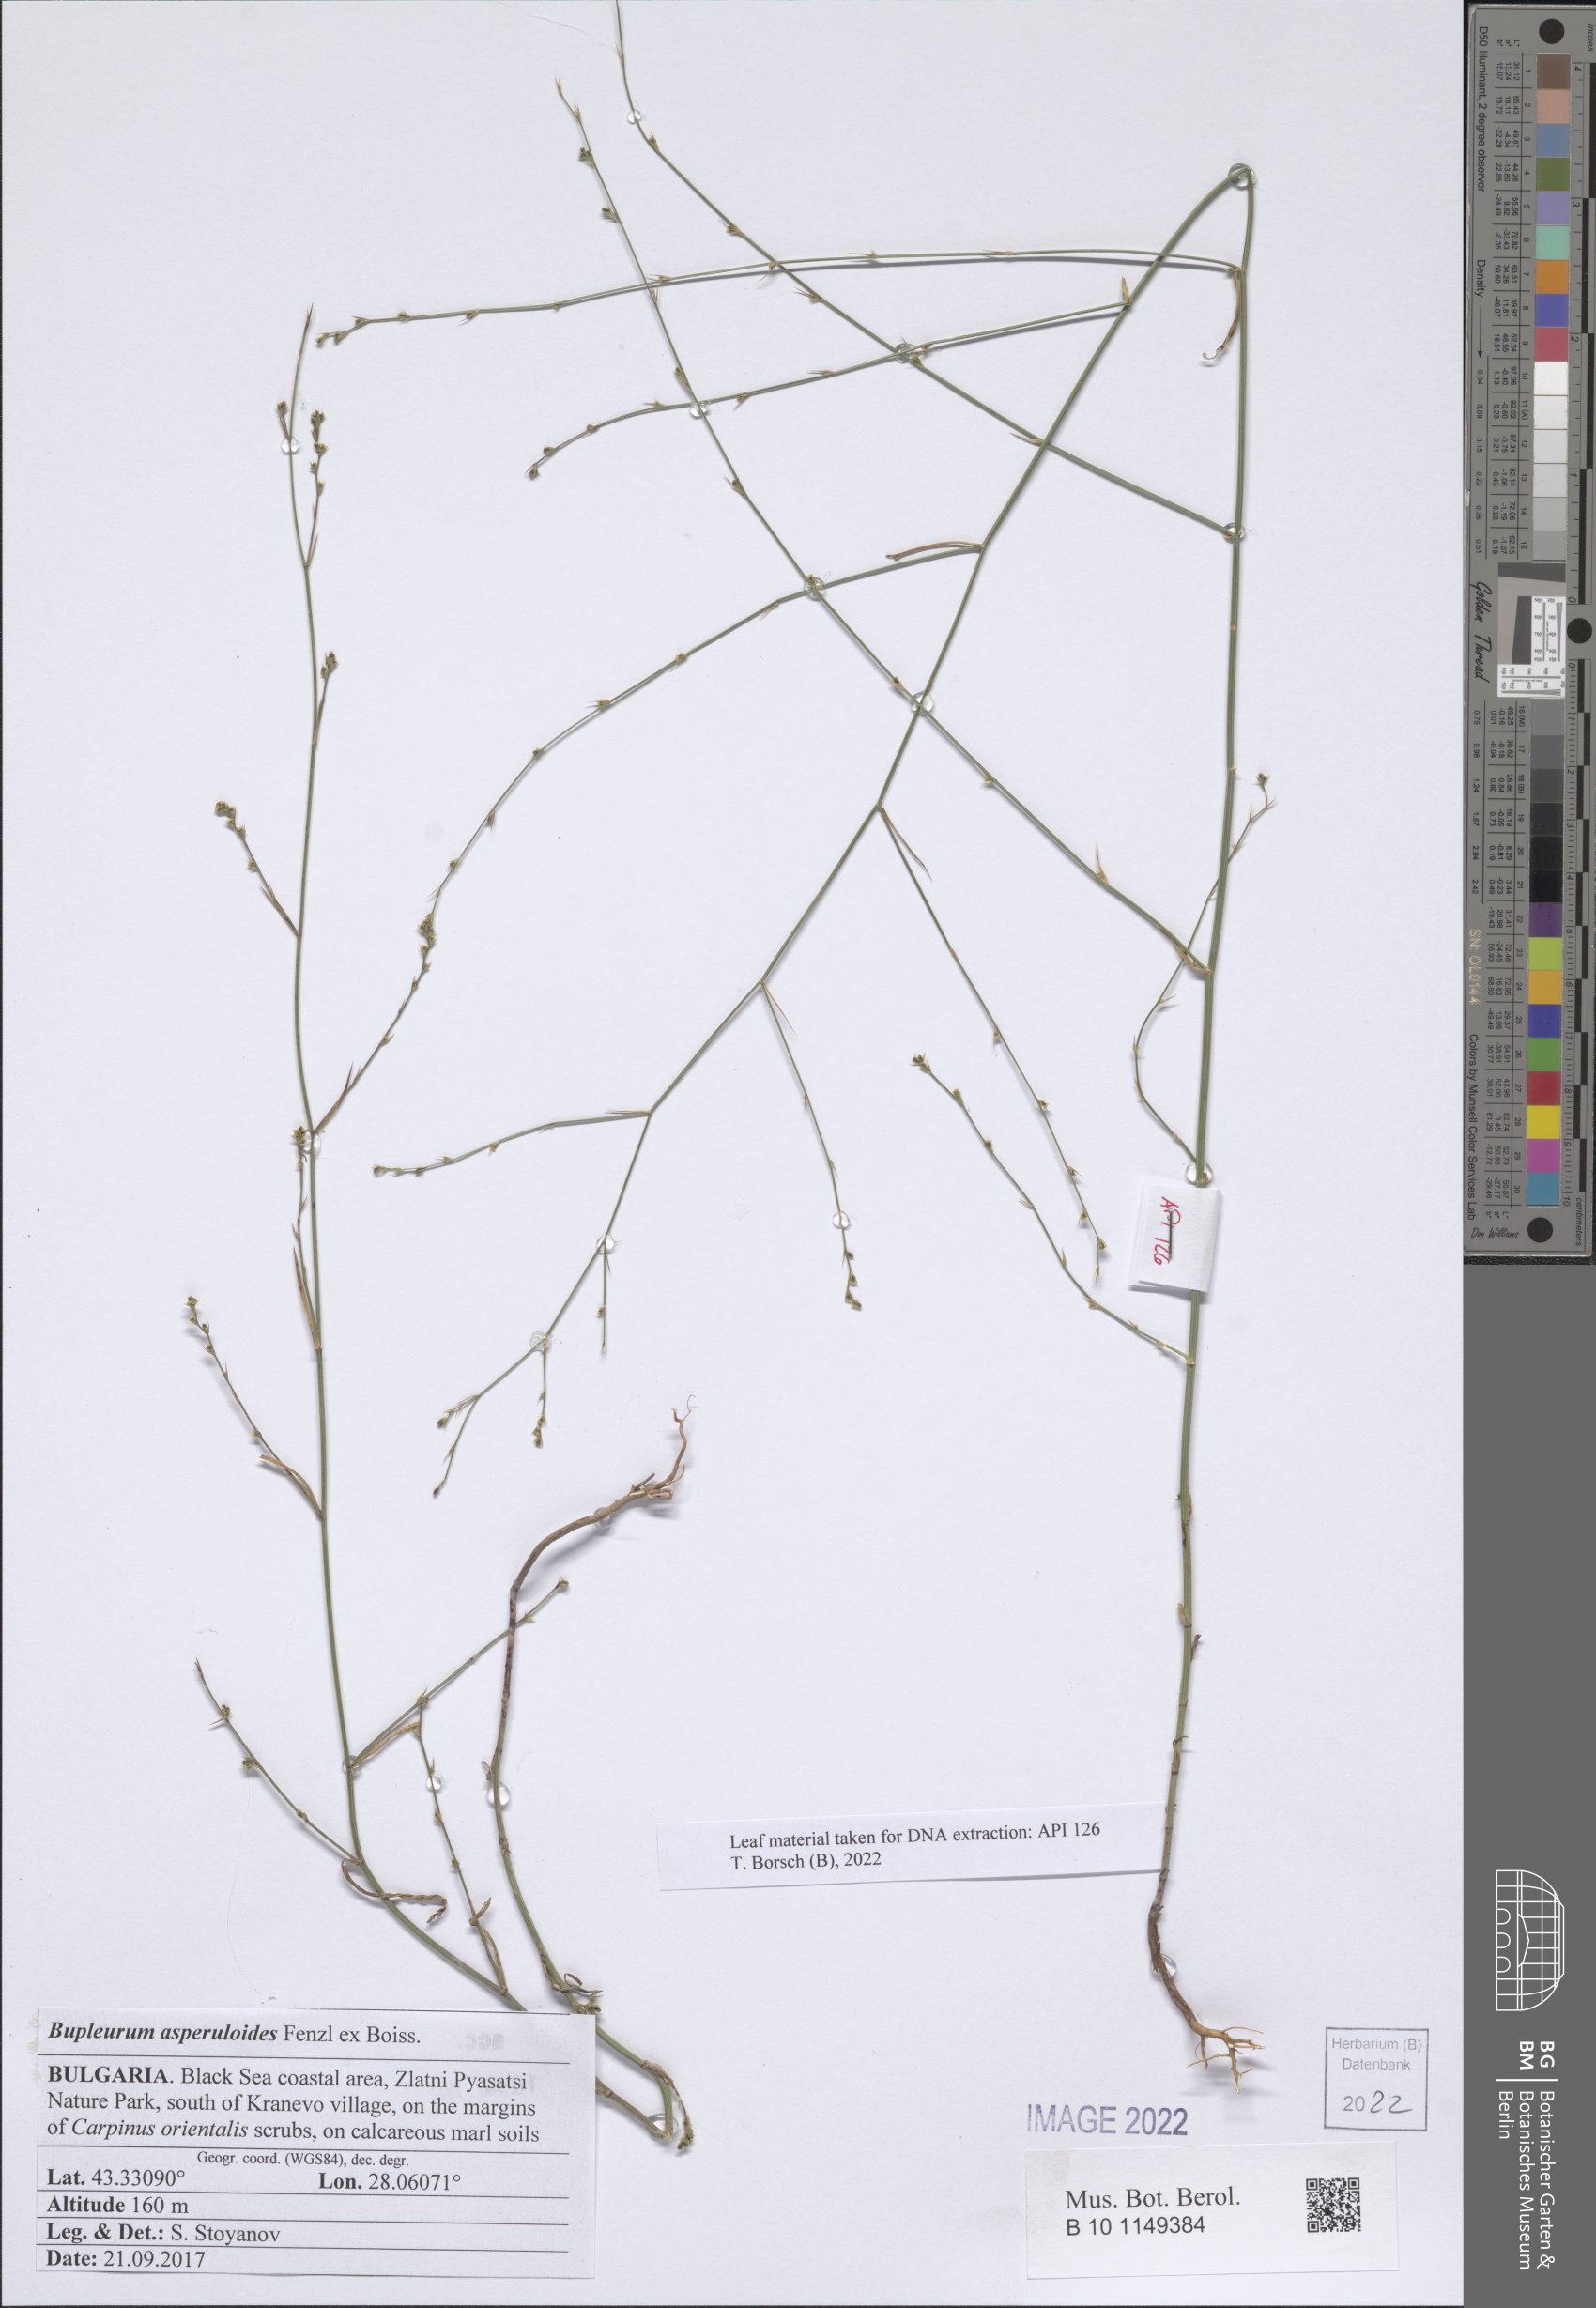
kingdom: Plantae
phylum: Tracheophyta
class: Magnoliopsida
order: Apiales
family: Apiaceae
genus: Bupleurum
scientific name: Bupleurum asperuloides
